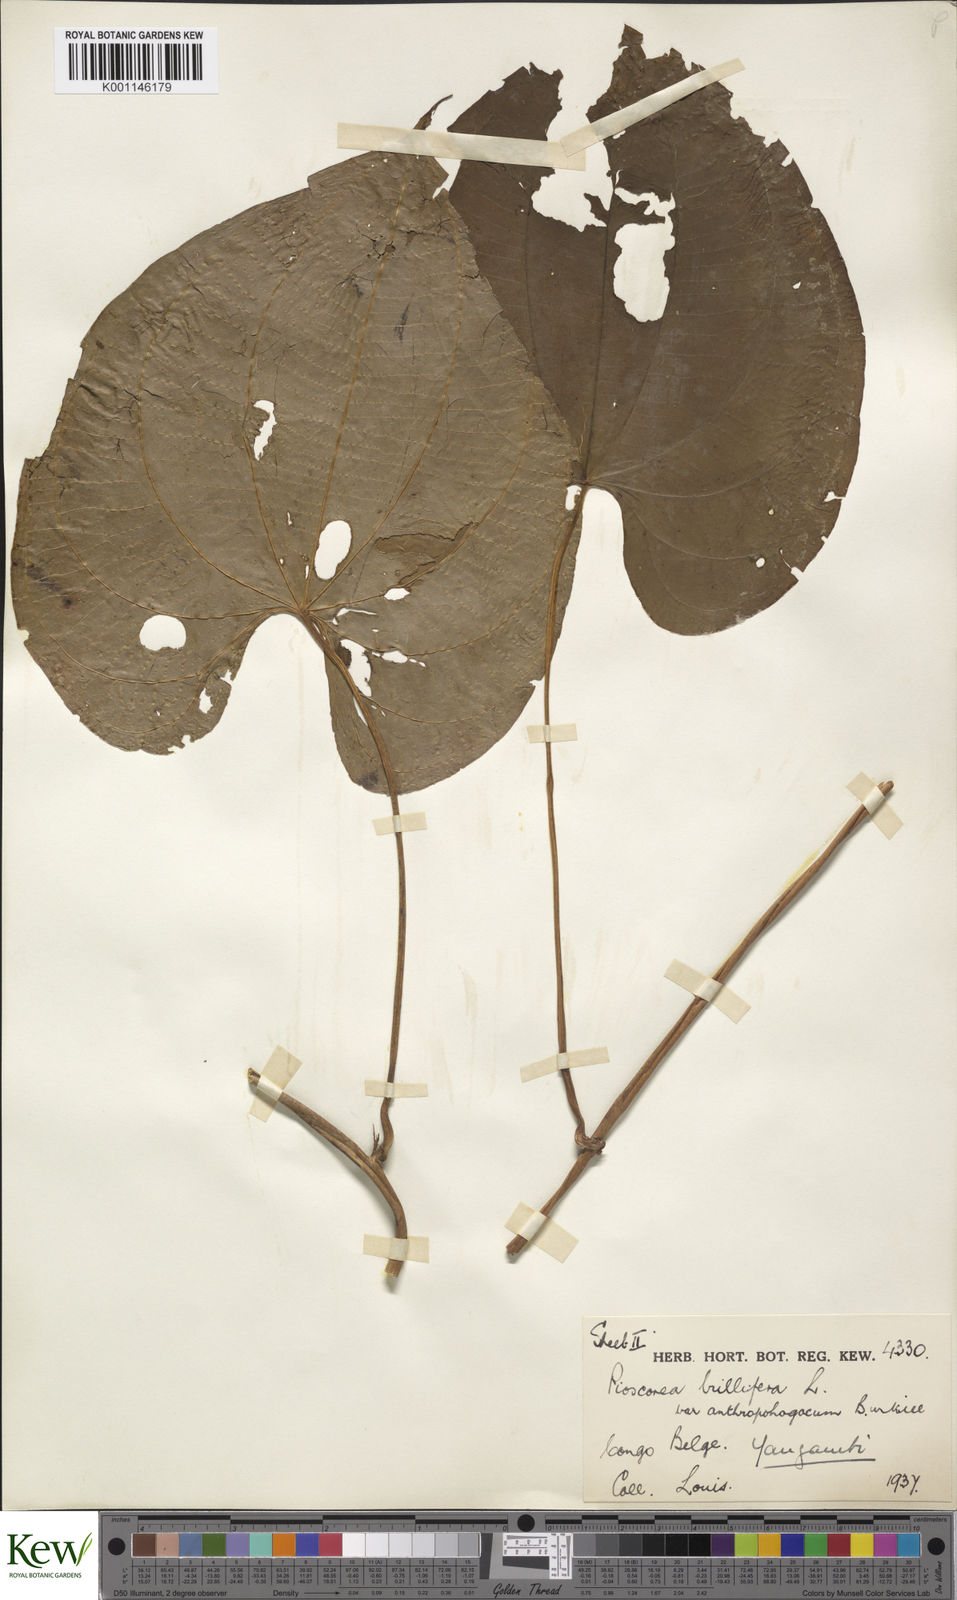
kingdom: Plantae
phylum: Tracheophyta
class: Liliopsida
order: Dioscoreales
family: Dioscoreaceae
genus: Dioscorea
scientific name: Dioscorea bulbifera
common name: Air yam
